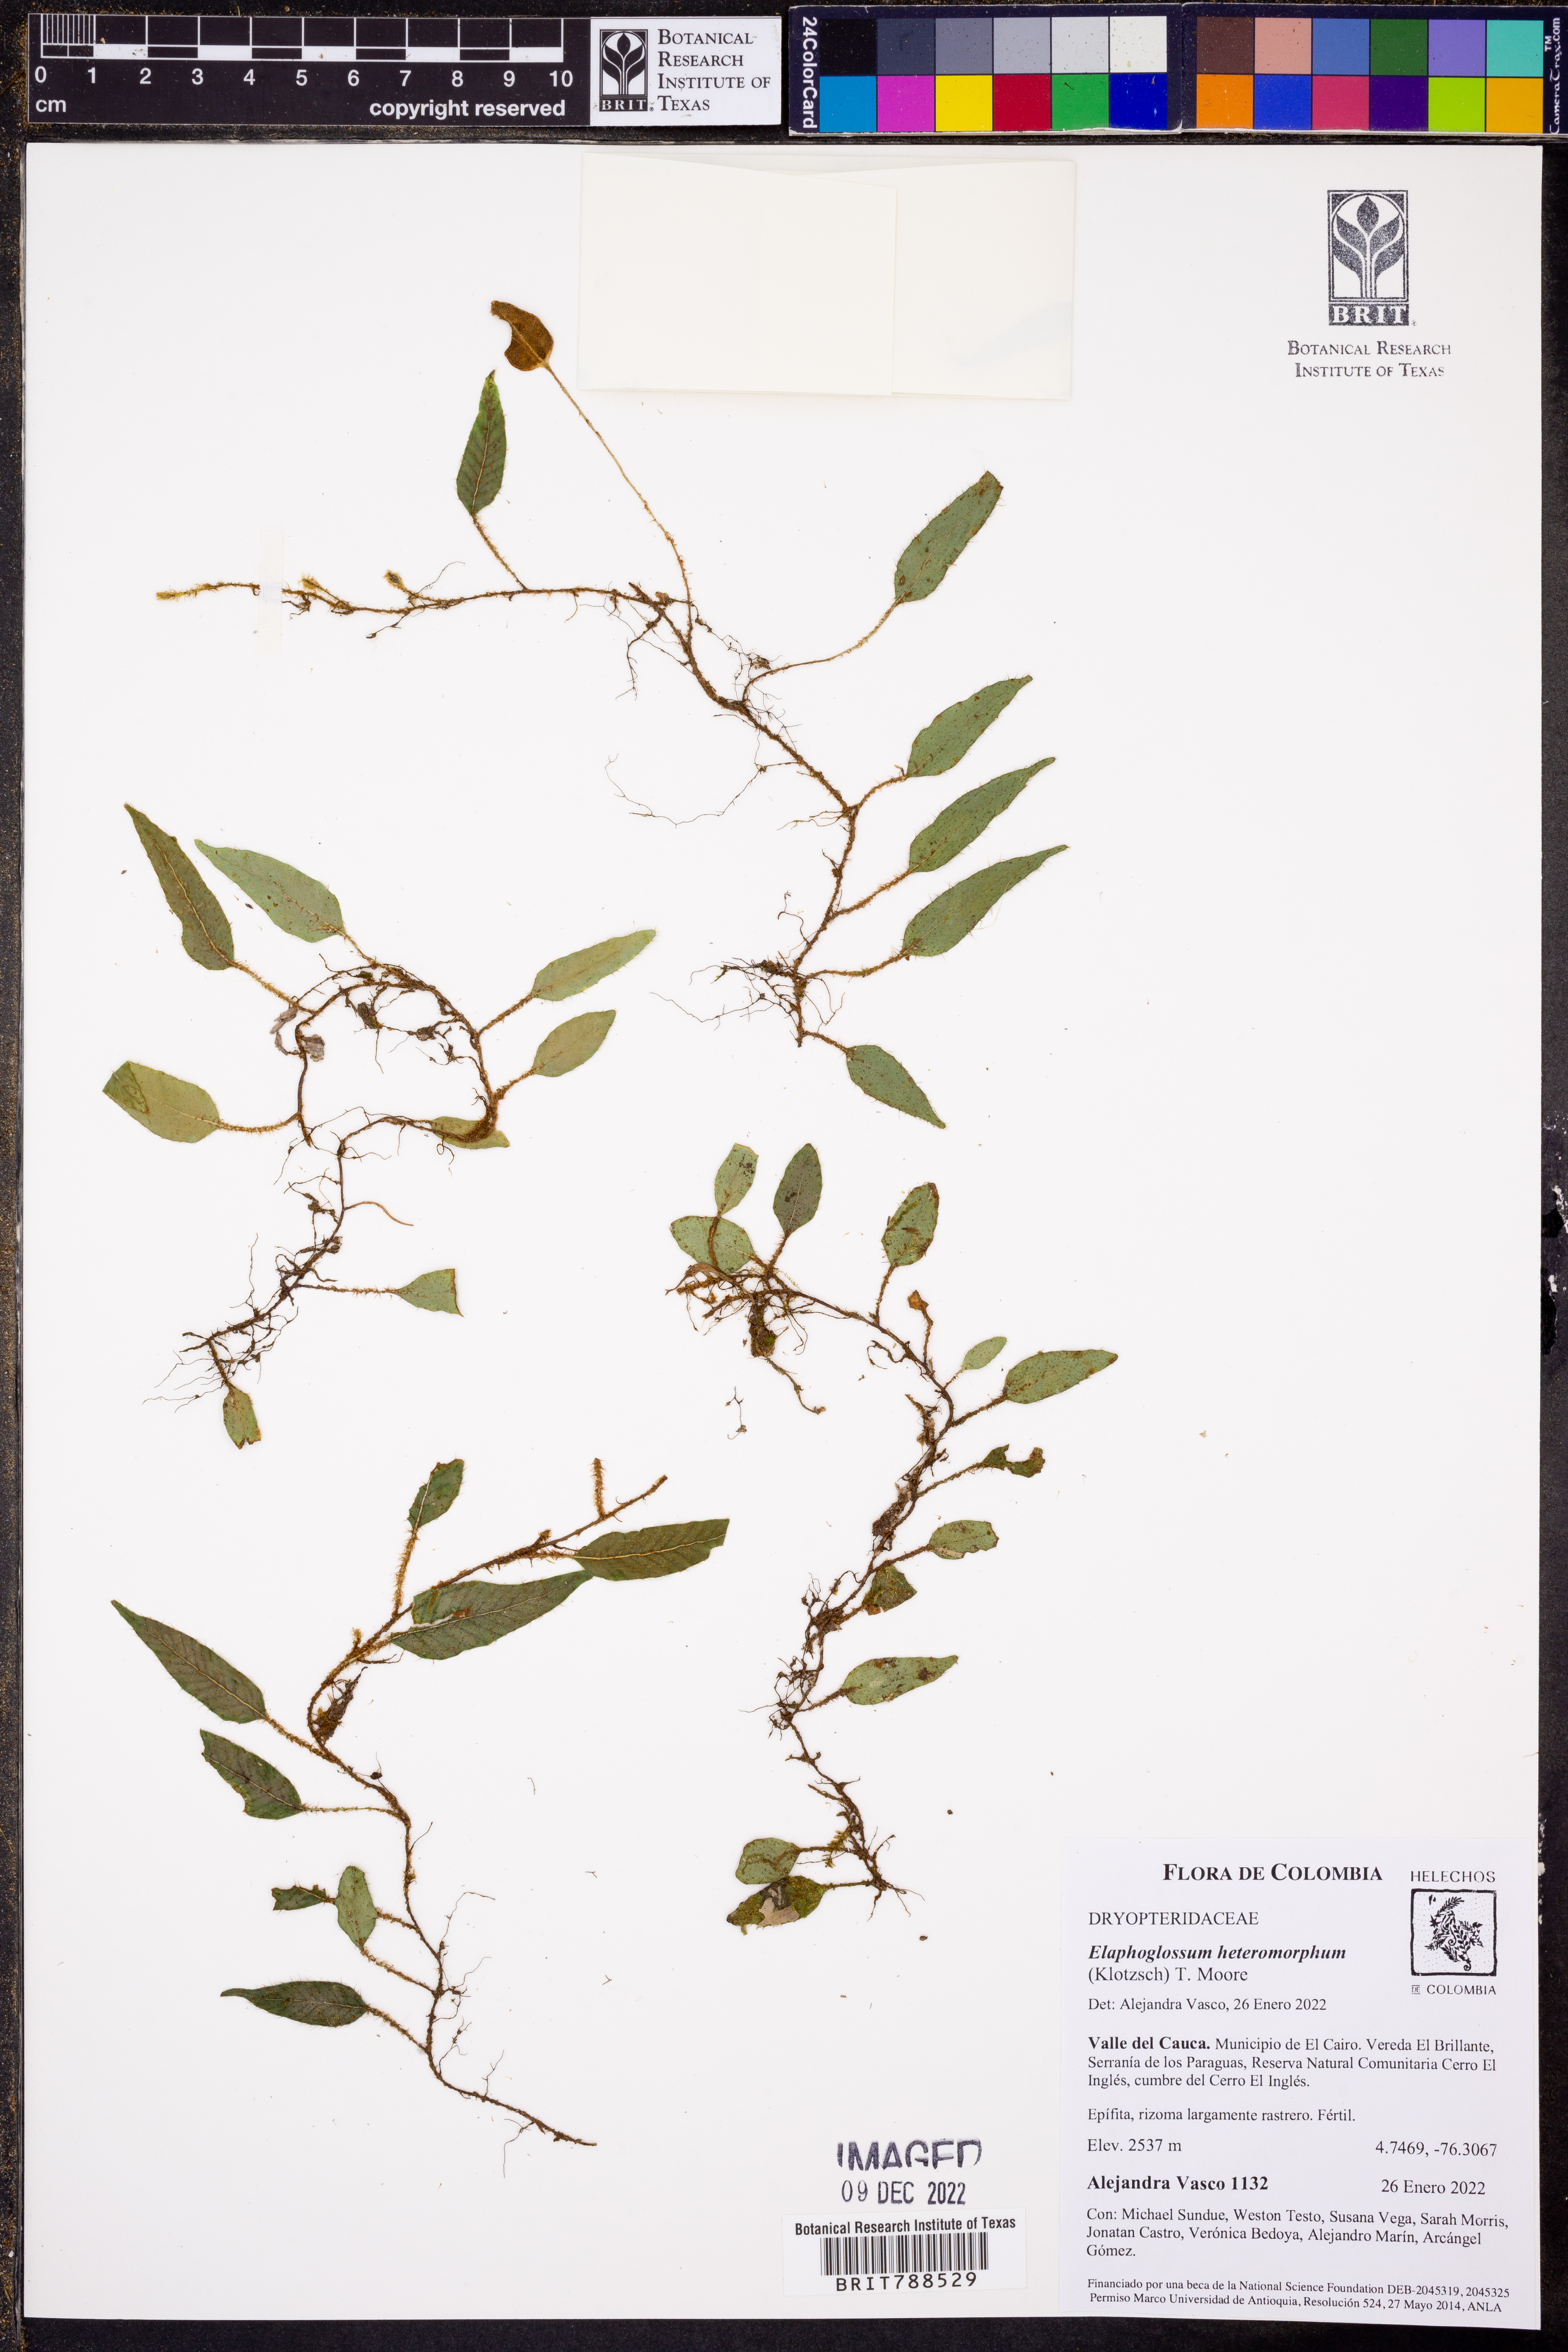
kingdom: Plantae
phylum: Tracheophyta
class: Polypodiopsida
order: Polypodiales
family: Dryopteridaceae
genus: Elaphoglossum
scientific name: Elaphoglossum polytrichum
